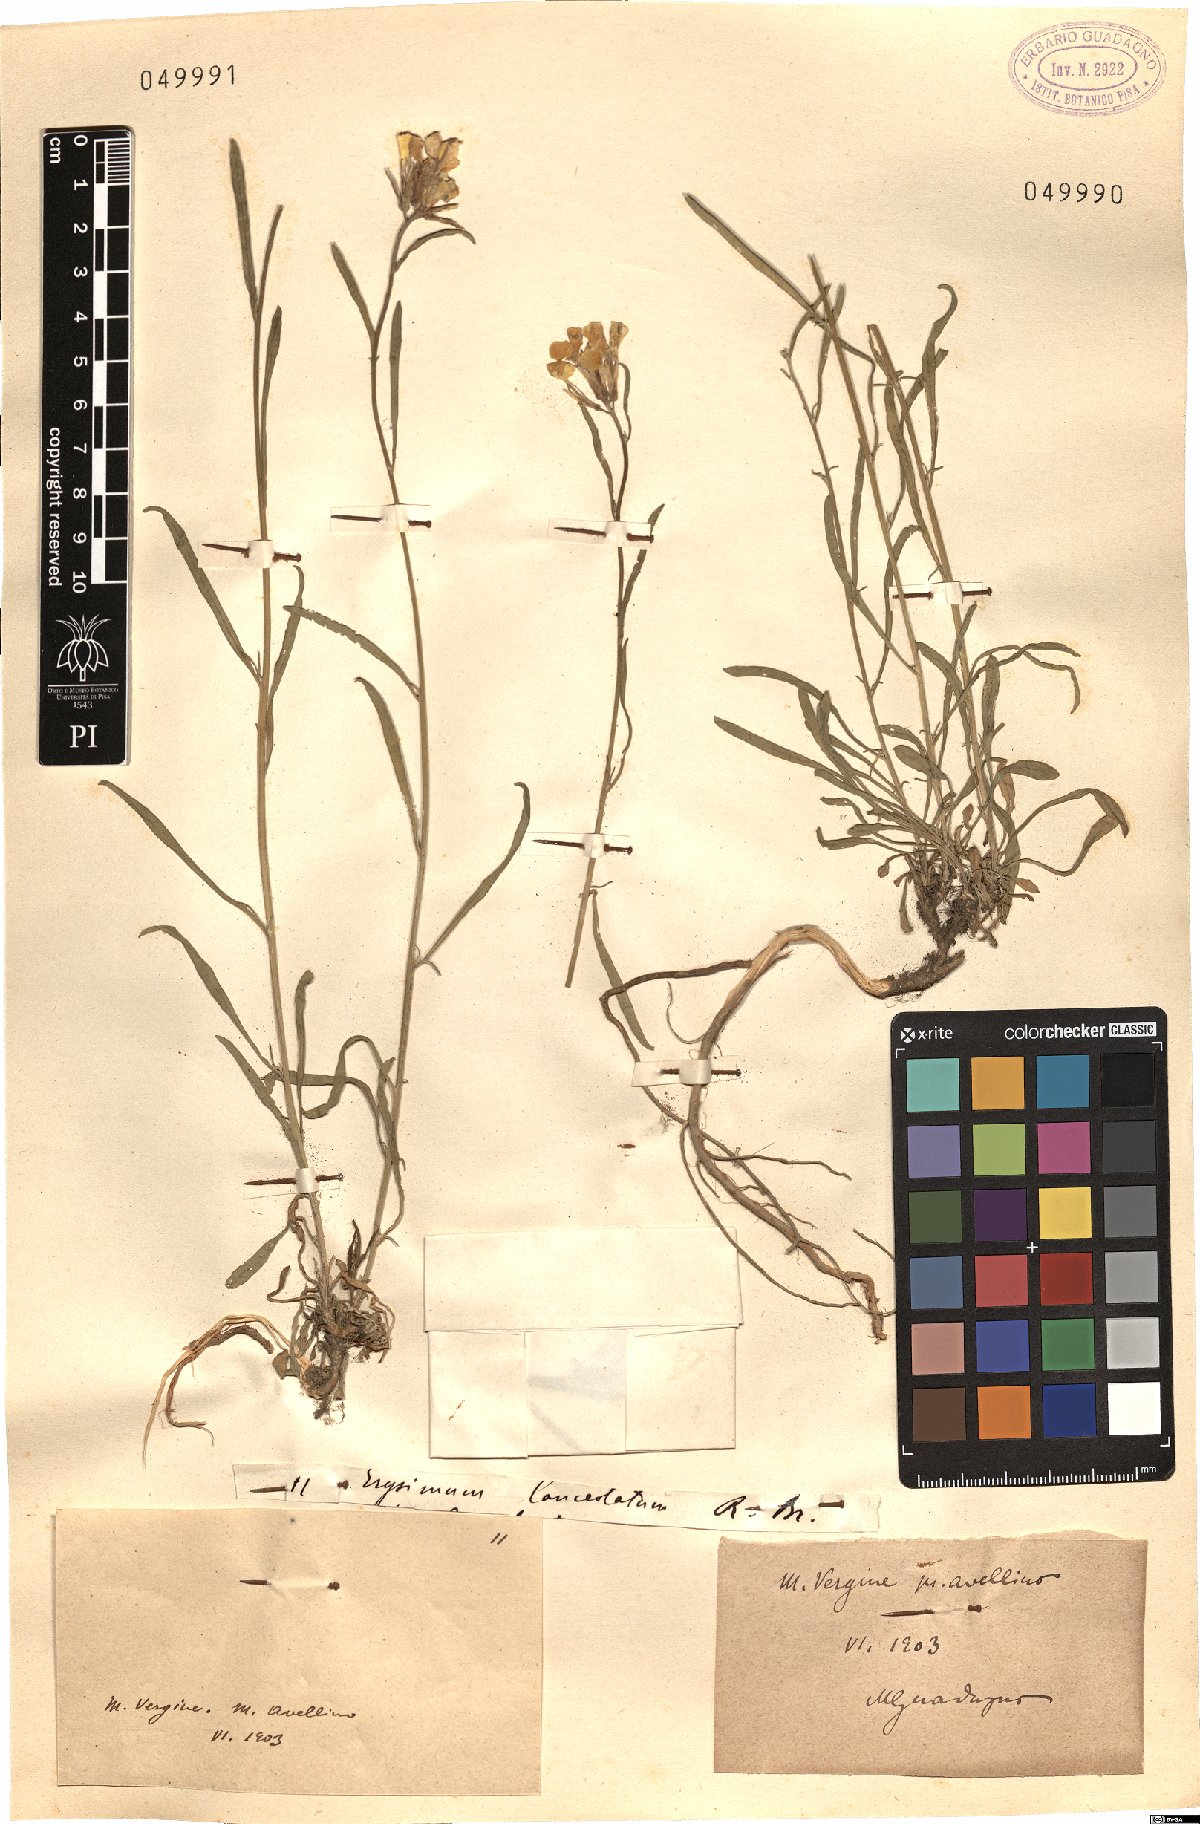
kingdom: Plantae
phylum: Tracheophyta
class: Magnoliopsida
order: Brassicales
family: Brassicaceae
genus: Erysimum
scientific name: Erysimum nevadense
